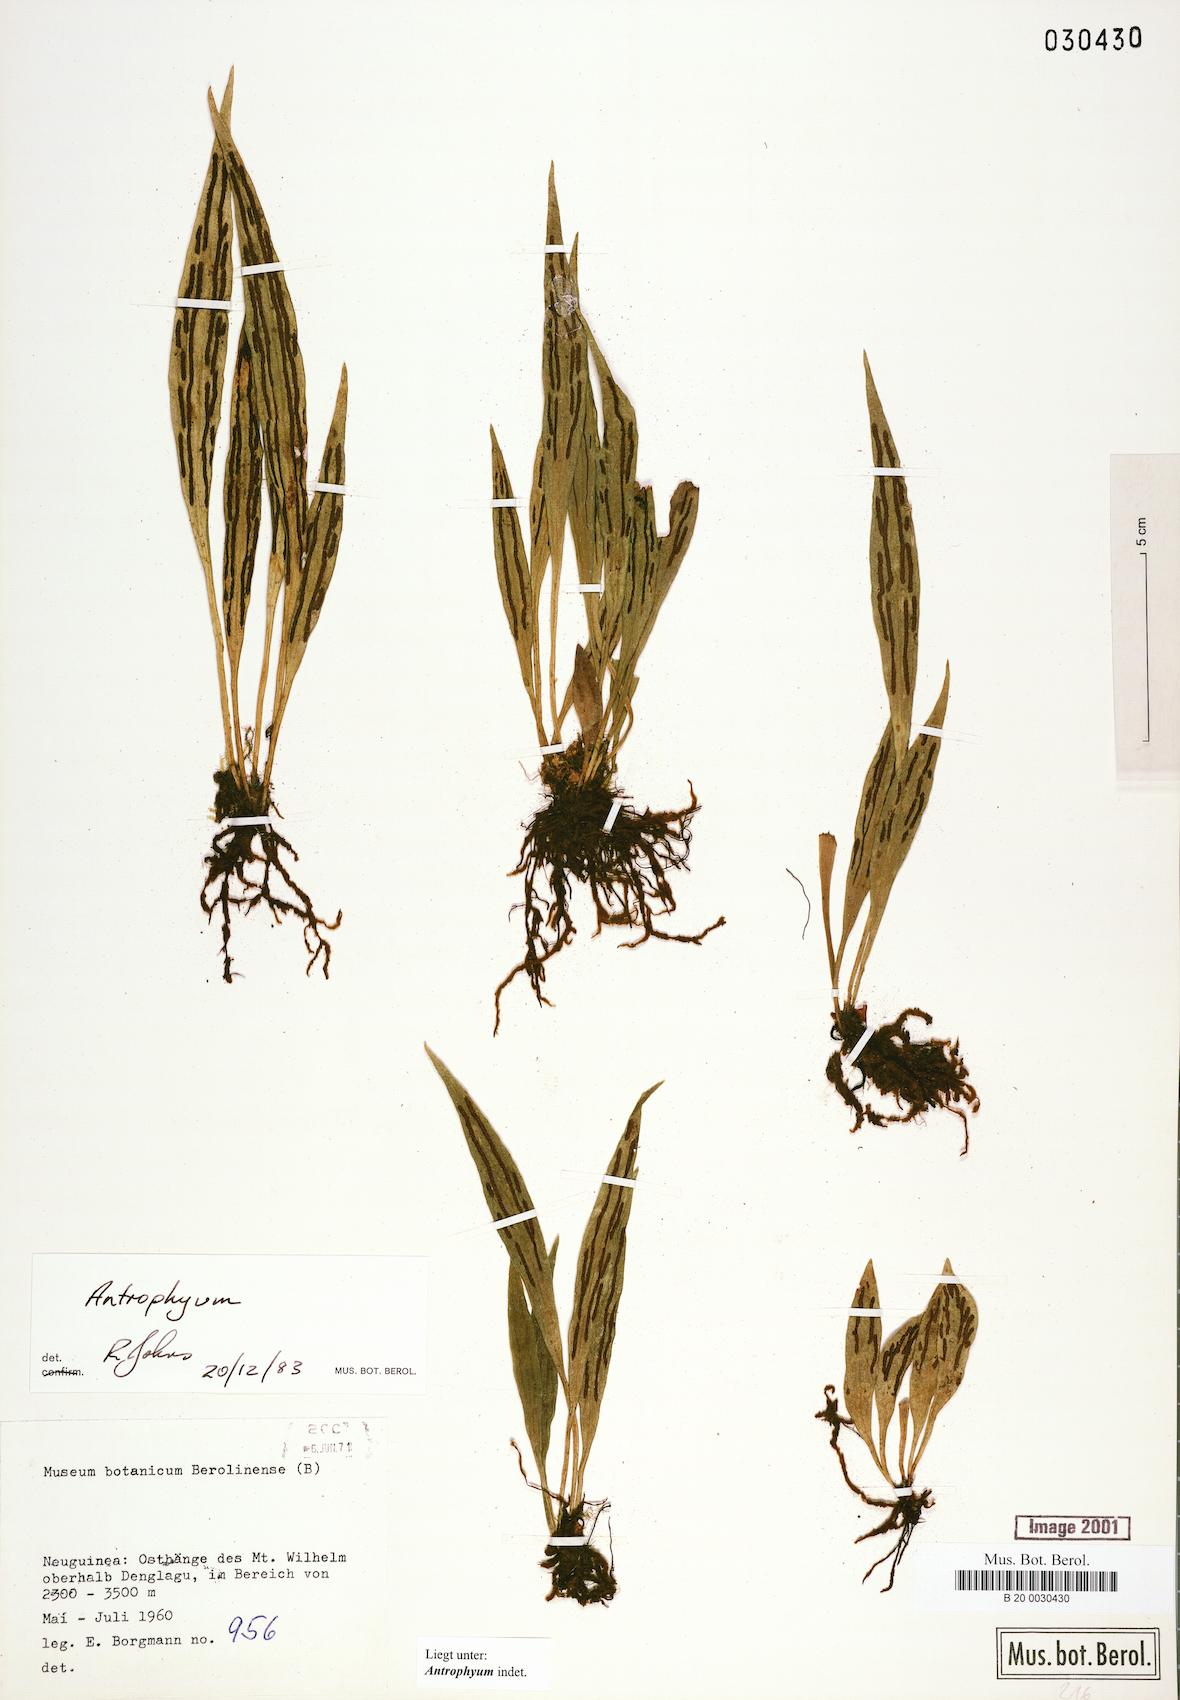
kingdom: Plantae
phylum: Tracheophyta
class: Polypodiopsida
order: Polypodiales
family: Pteridaceae
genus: Antrophyum
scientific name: Antrophyum
